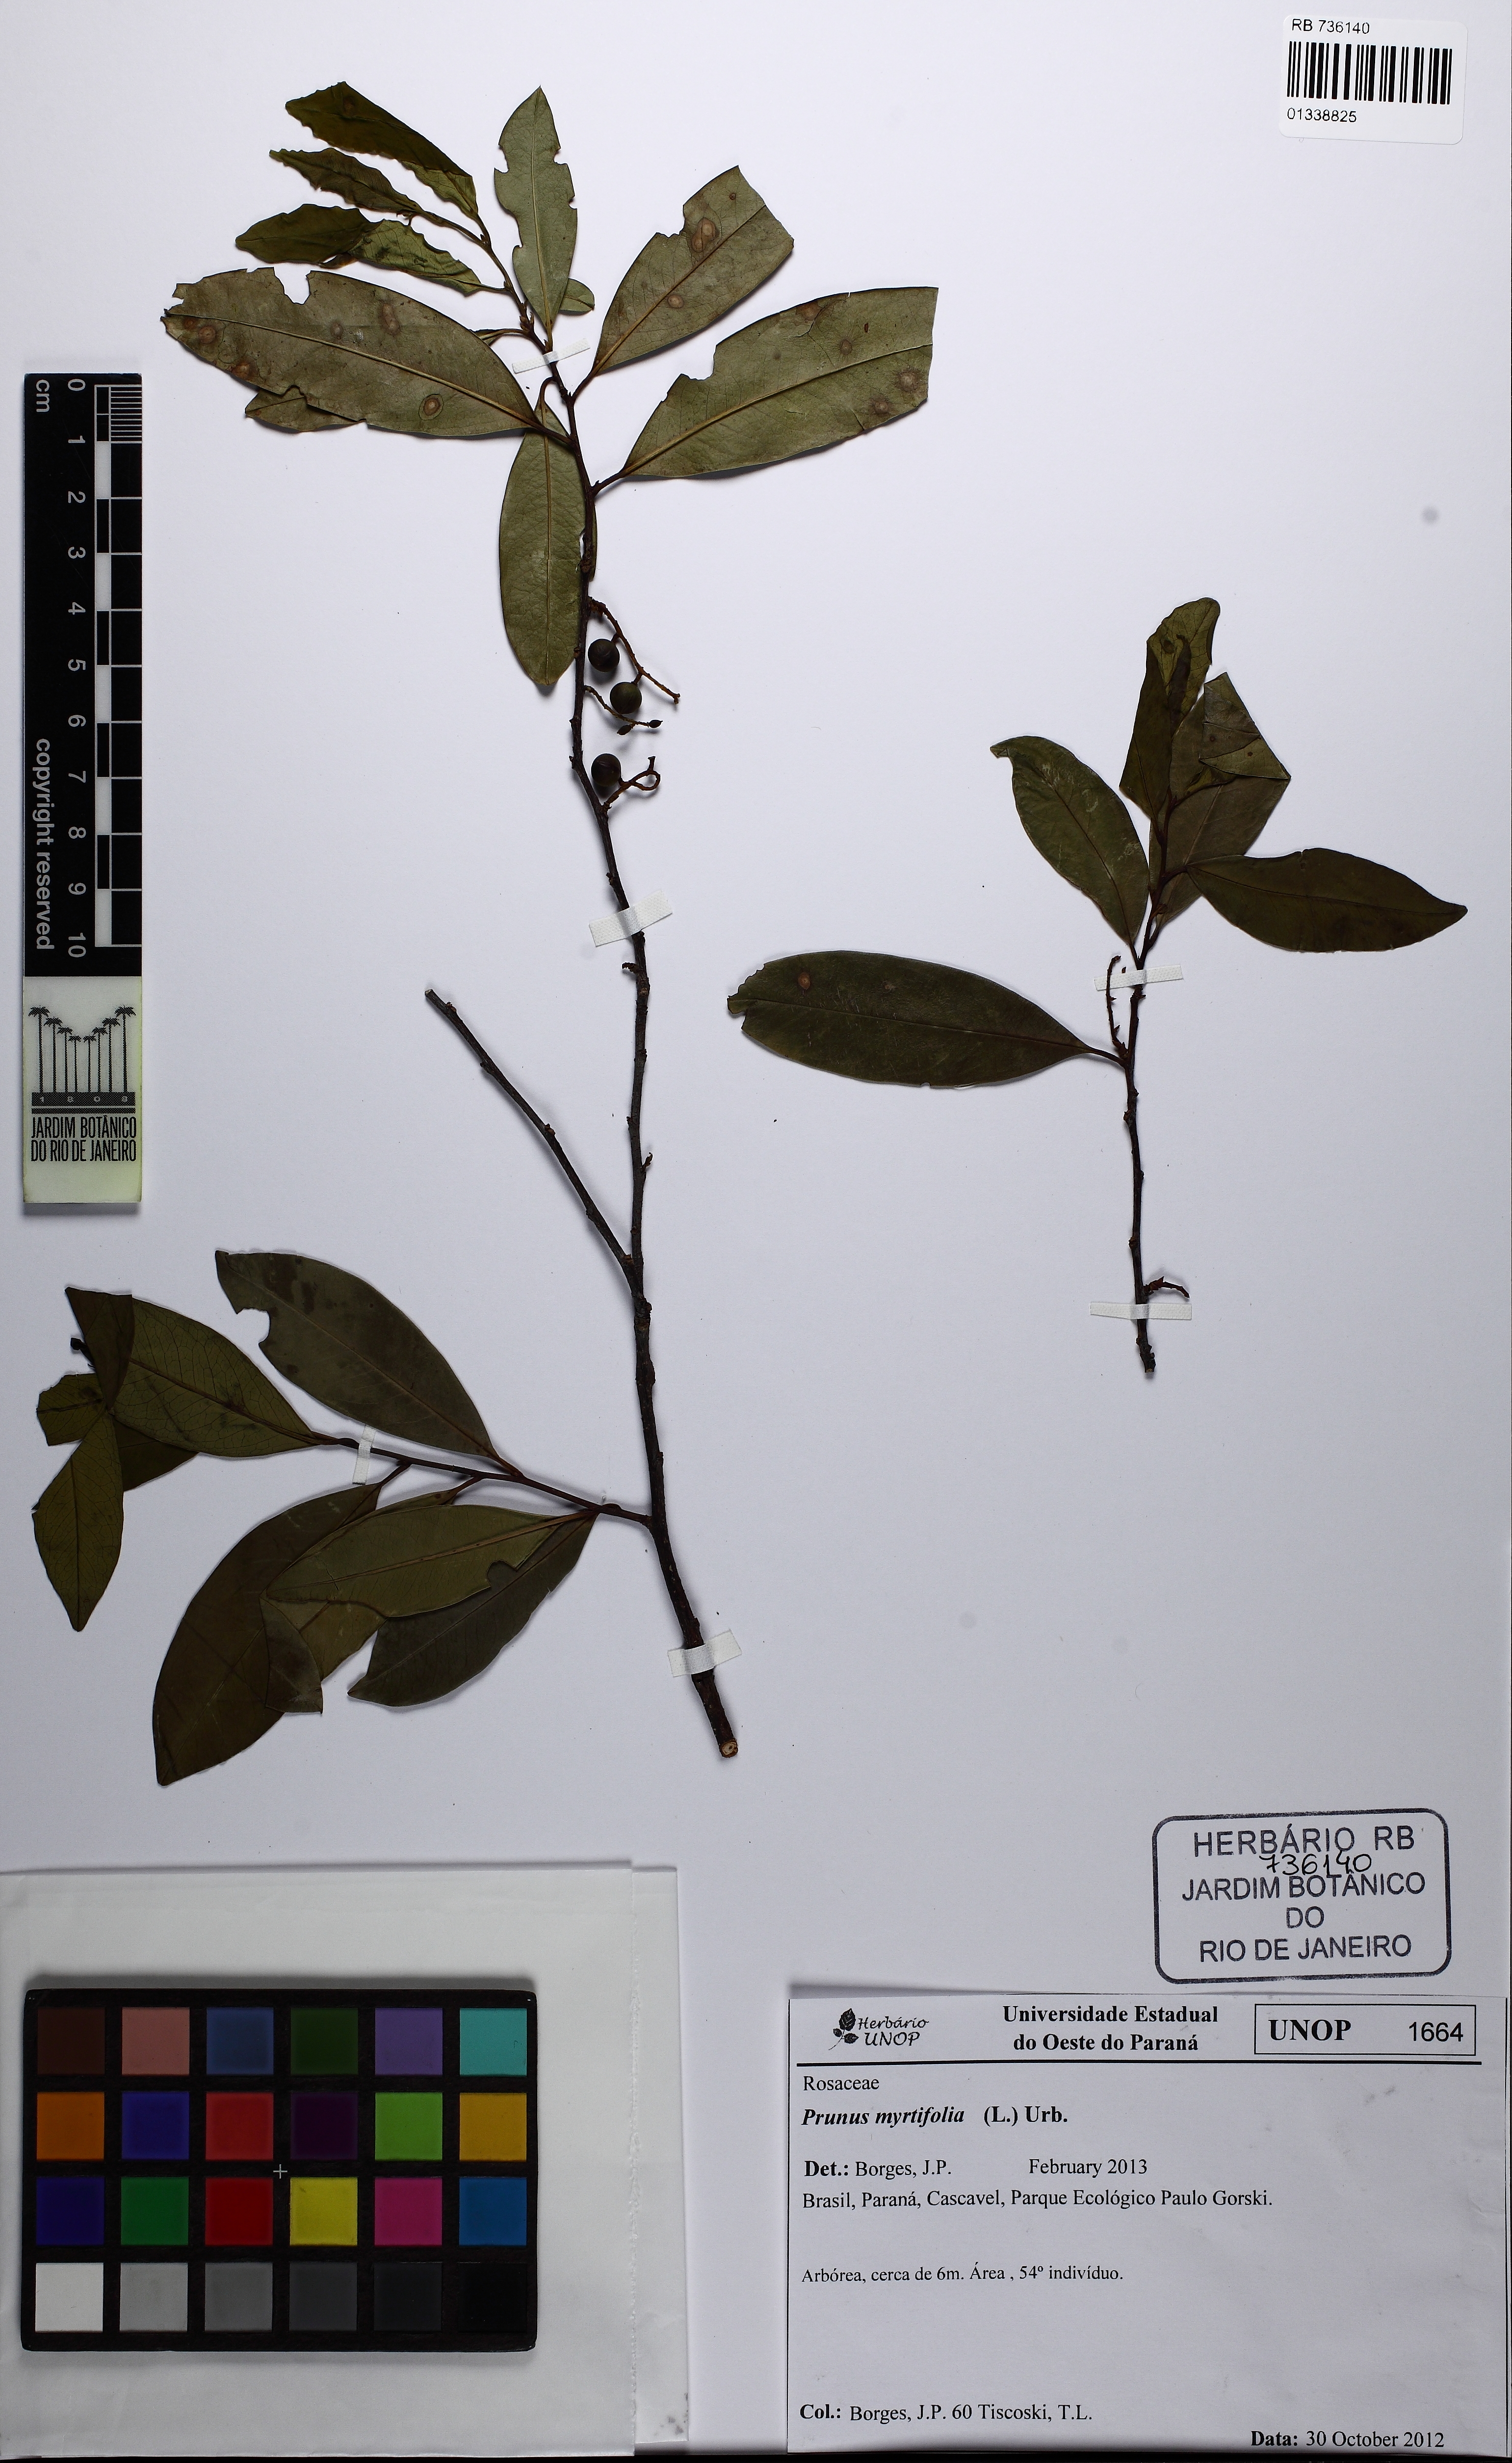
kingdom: Plantae
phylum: Tracheophyta
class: Magnoliopsida
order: Rosales
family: Rosaceae
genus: Prunus
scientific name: Prunus myrtifolia
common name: West indies cherry
